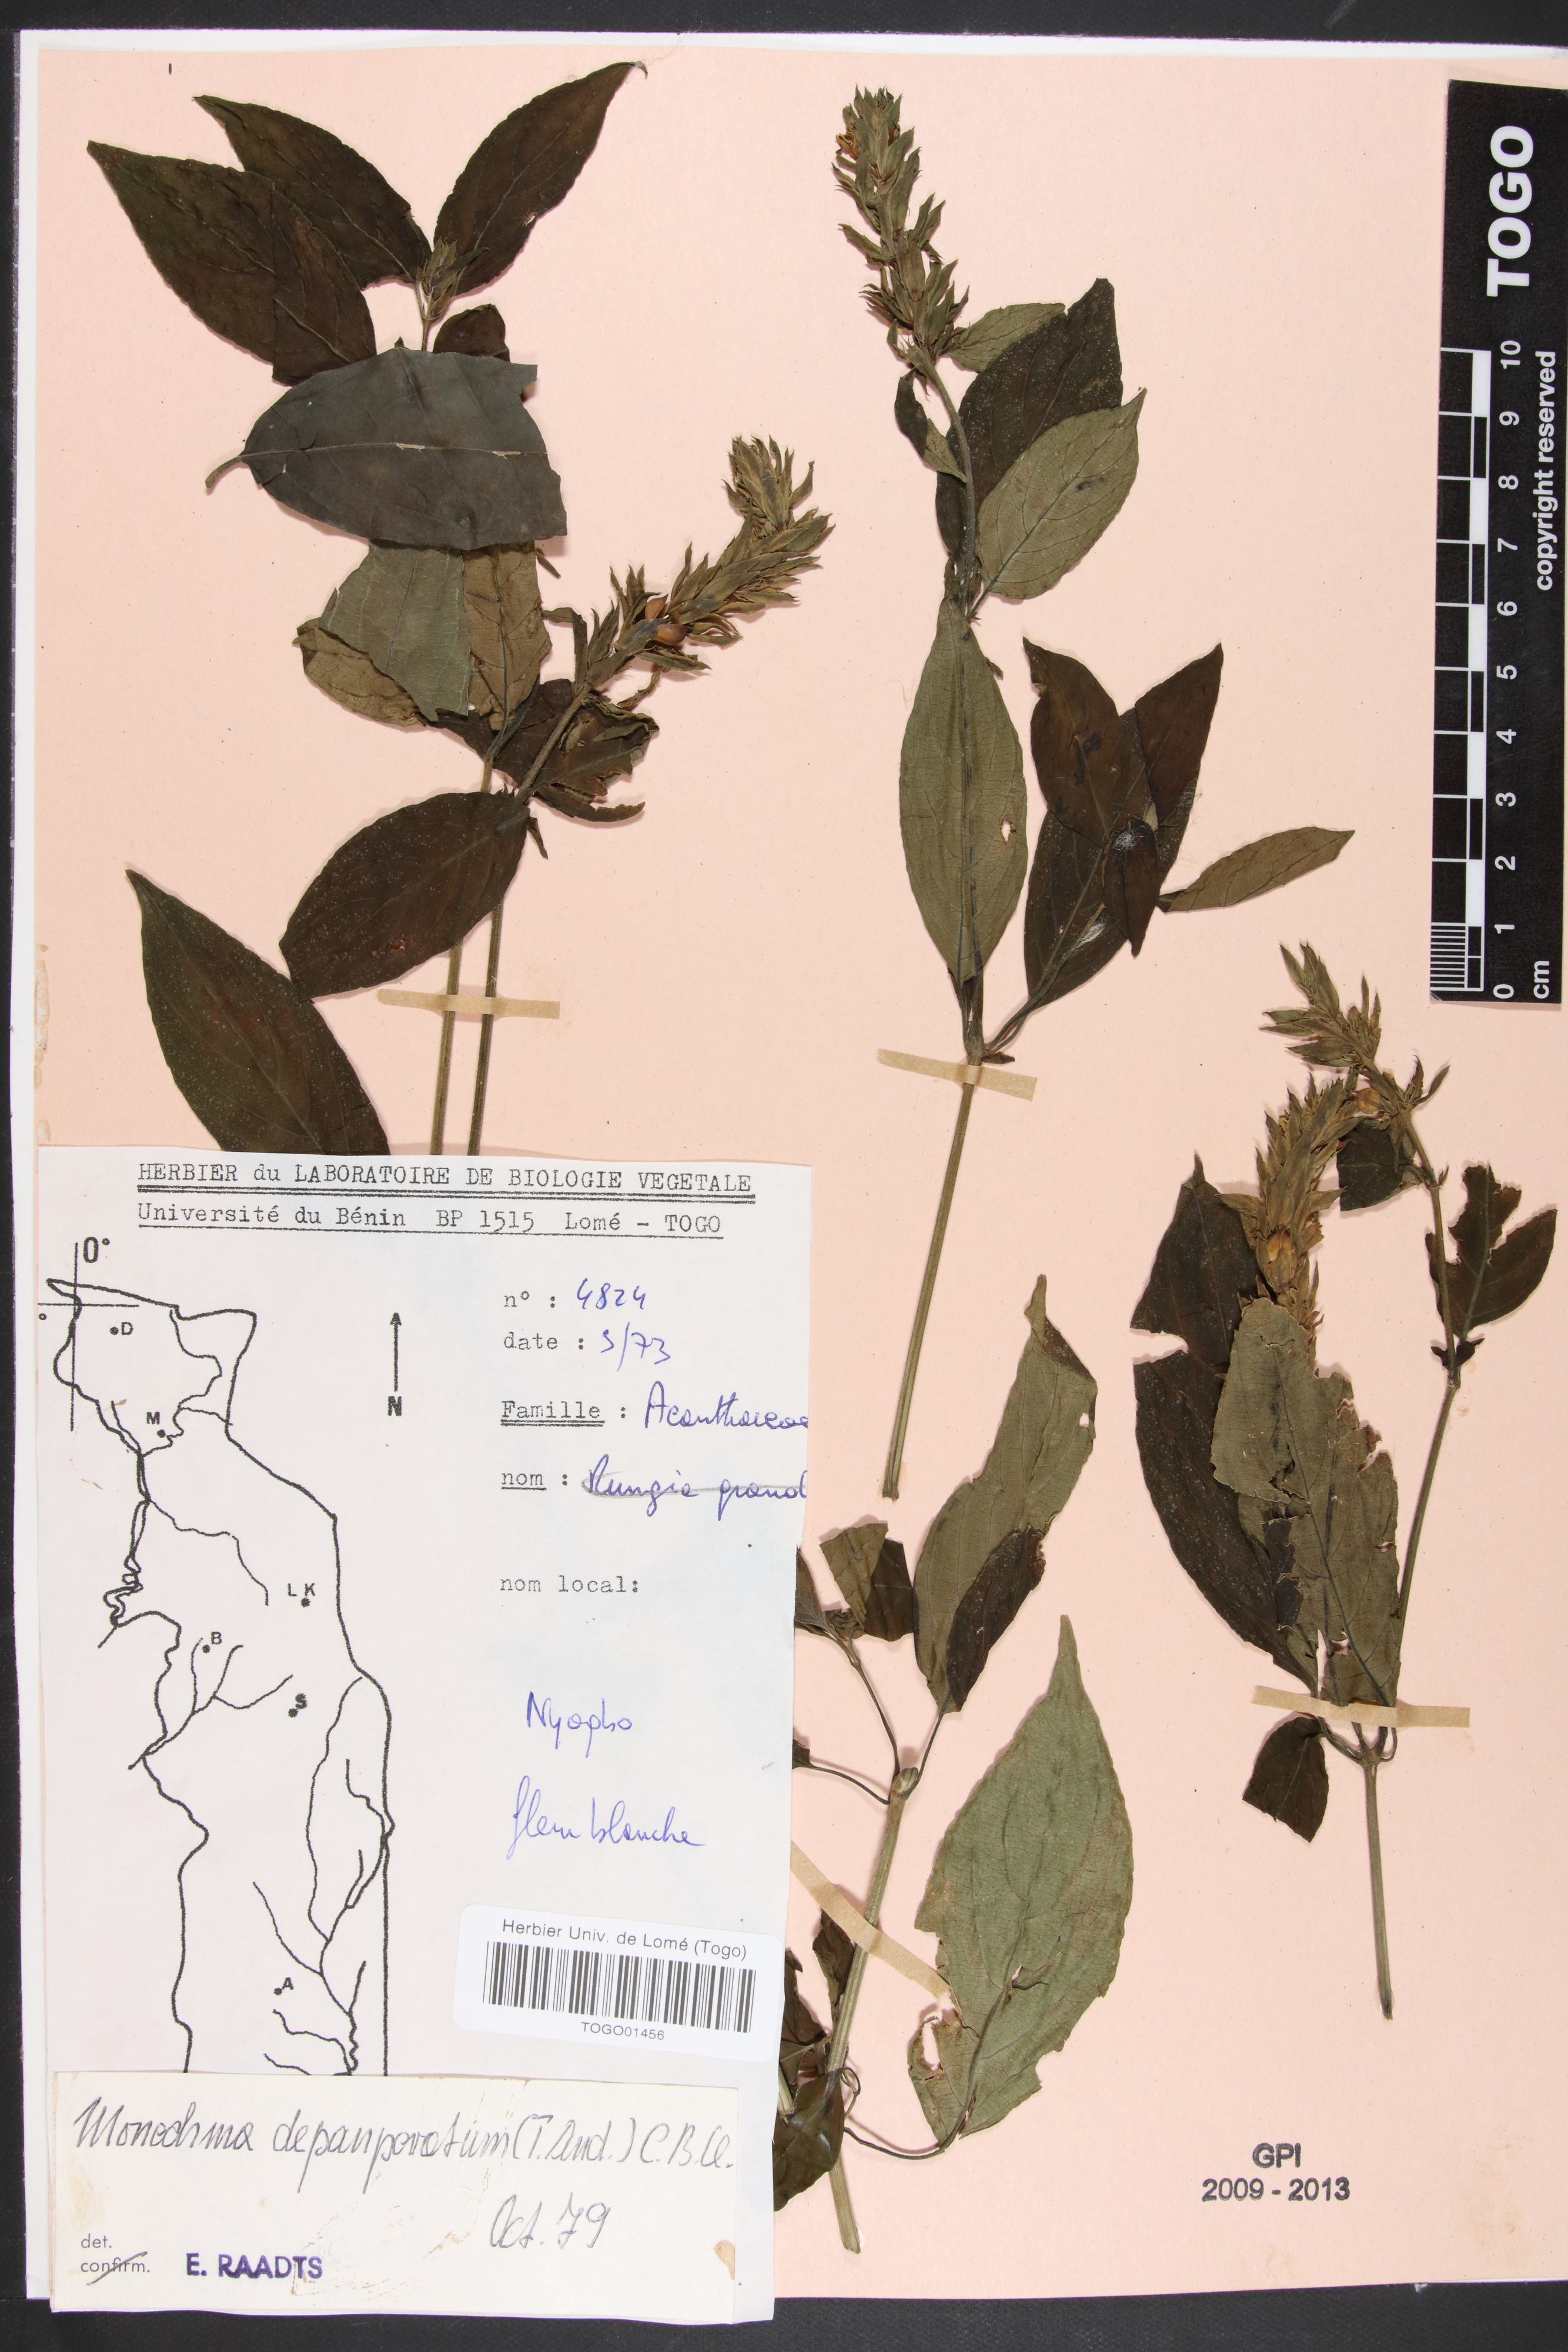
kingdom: Plantae
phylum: Tracheophyta
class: Magnoliopsida
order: Lamiales
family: Acanthaceae
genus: Monechma
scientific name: Monechma depauperatum
